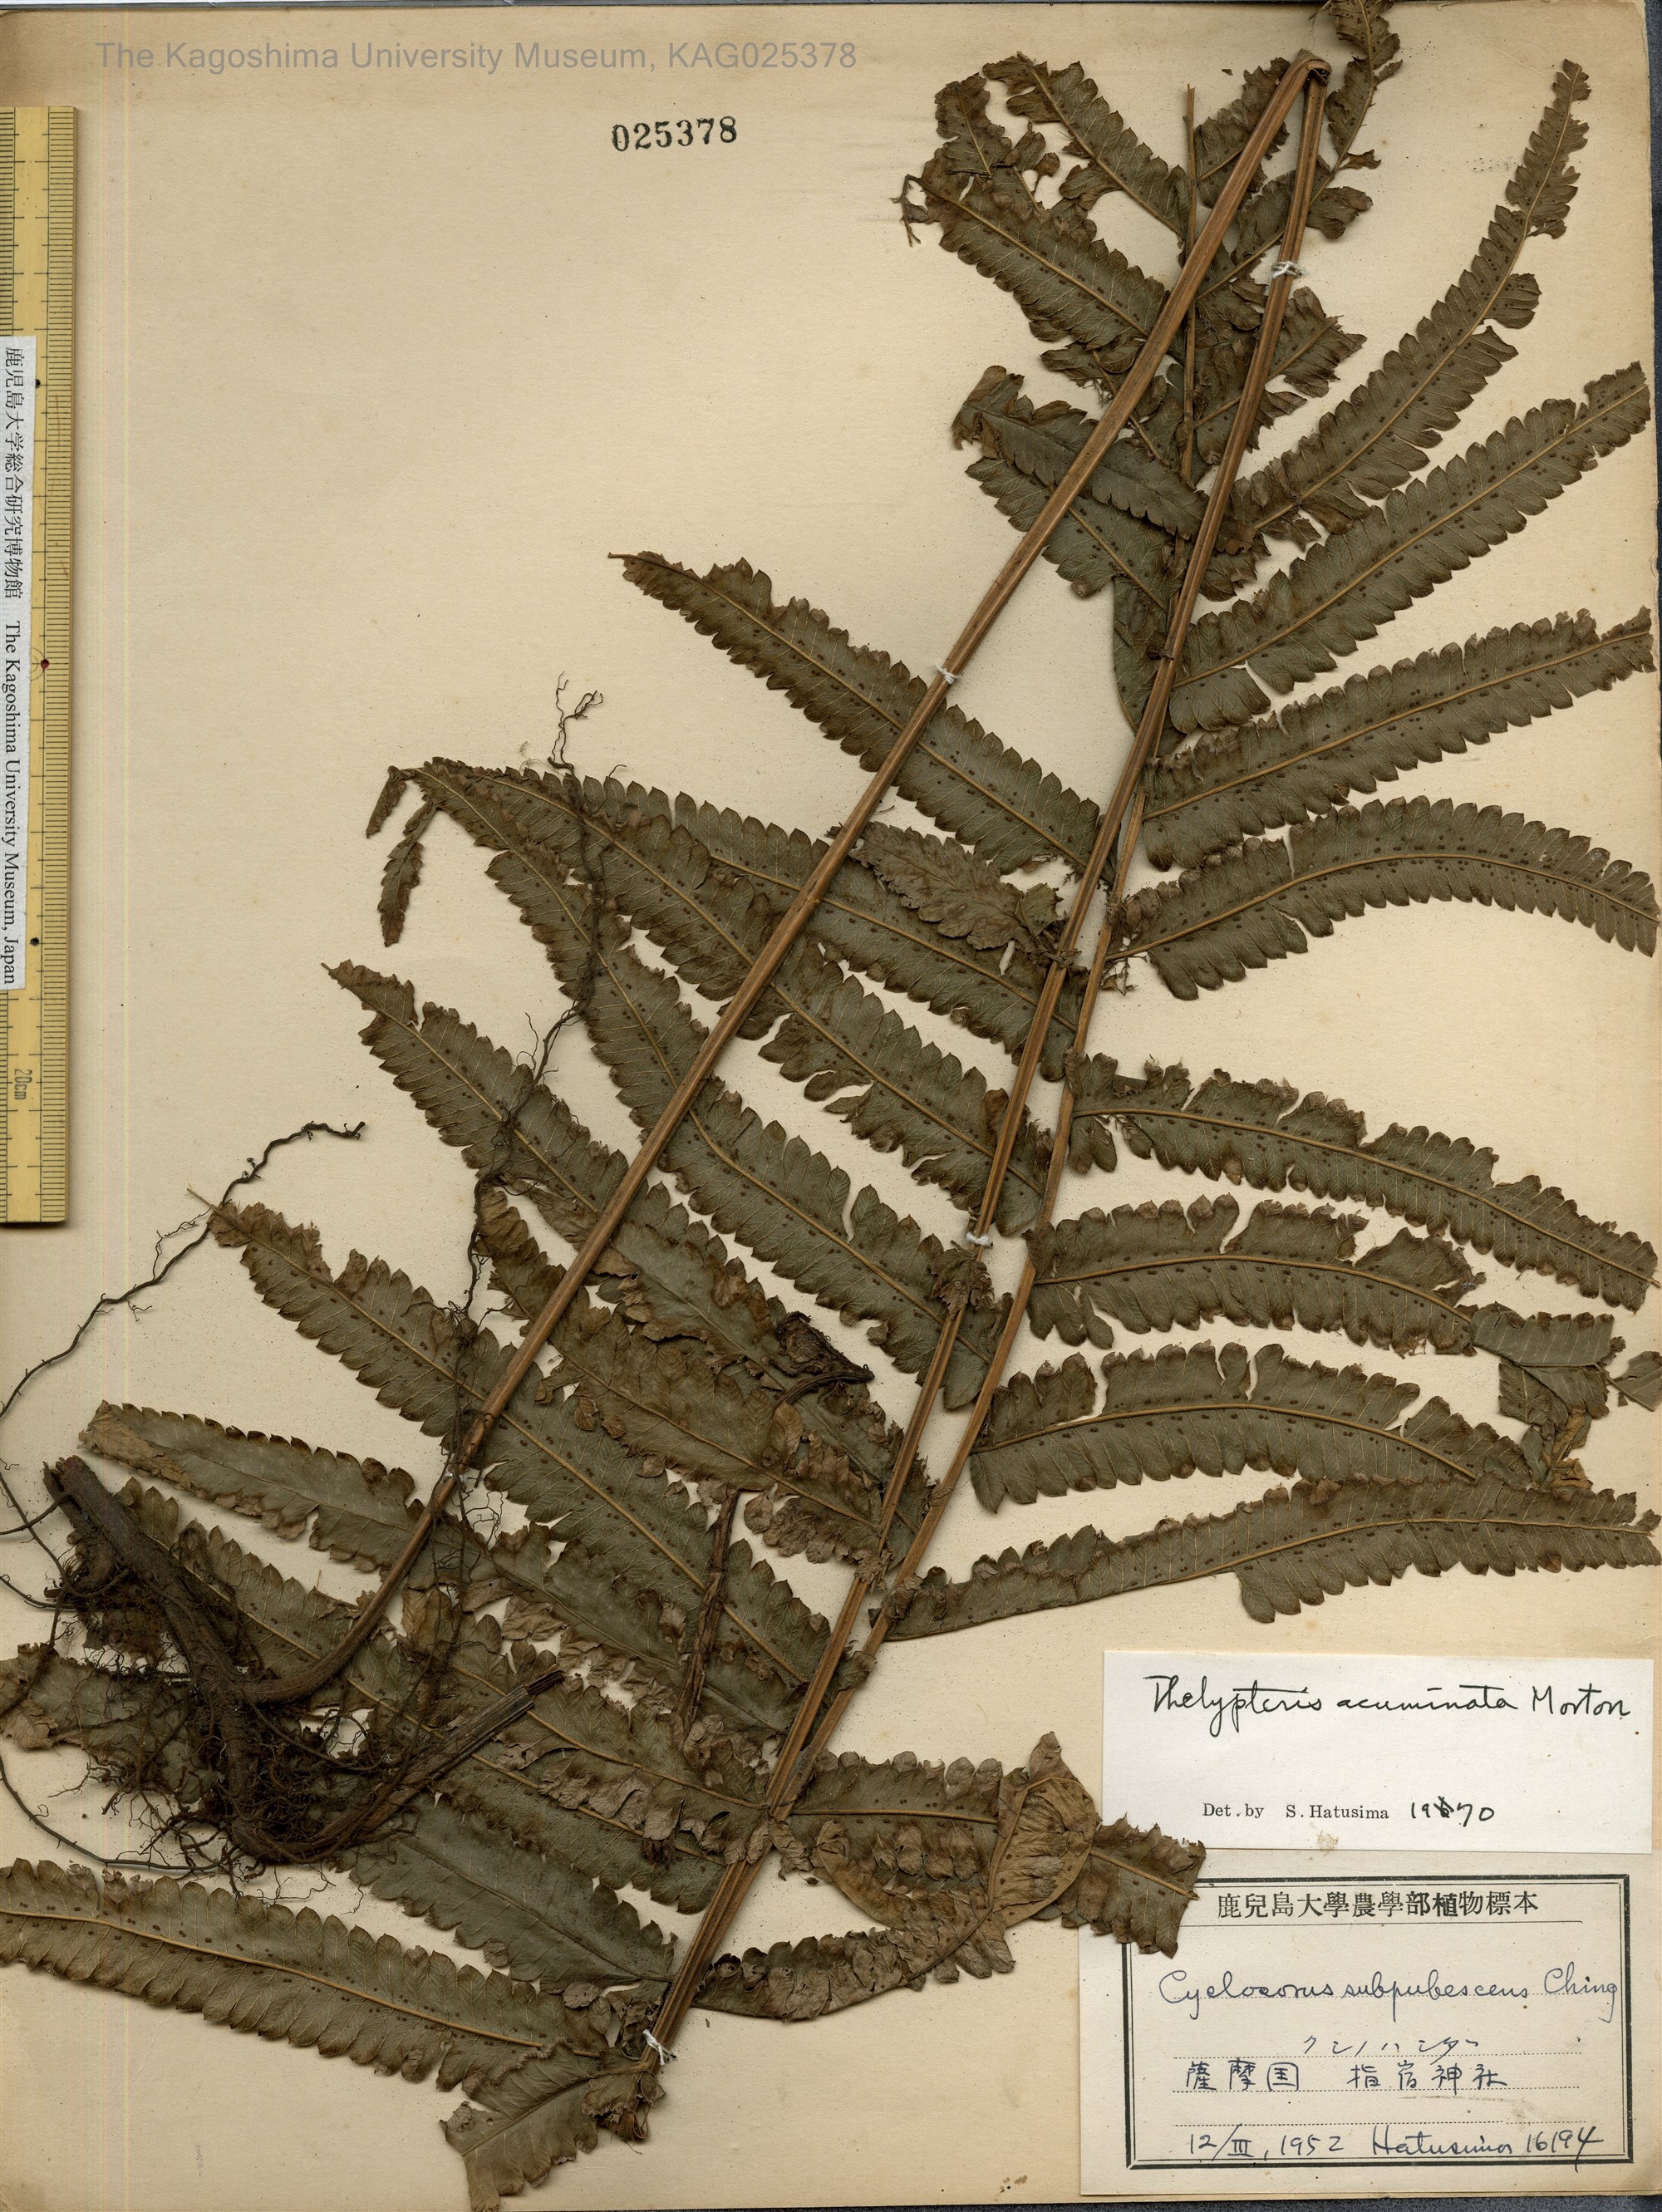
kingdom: Plantae
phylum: Tracheophyta
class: Polypodiopsida
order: Polypodiales
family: Thelypteridaceae
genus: Christella
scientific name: Christella acuminata
